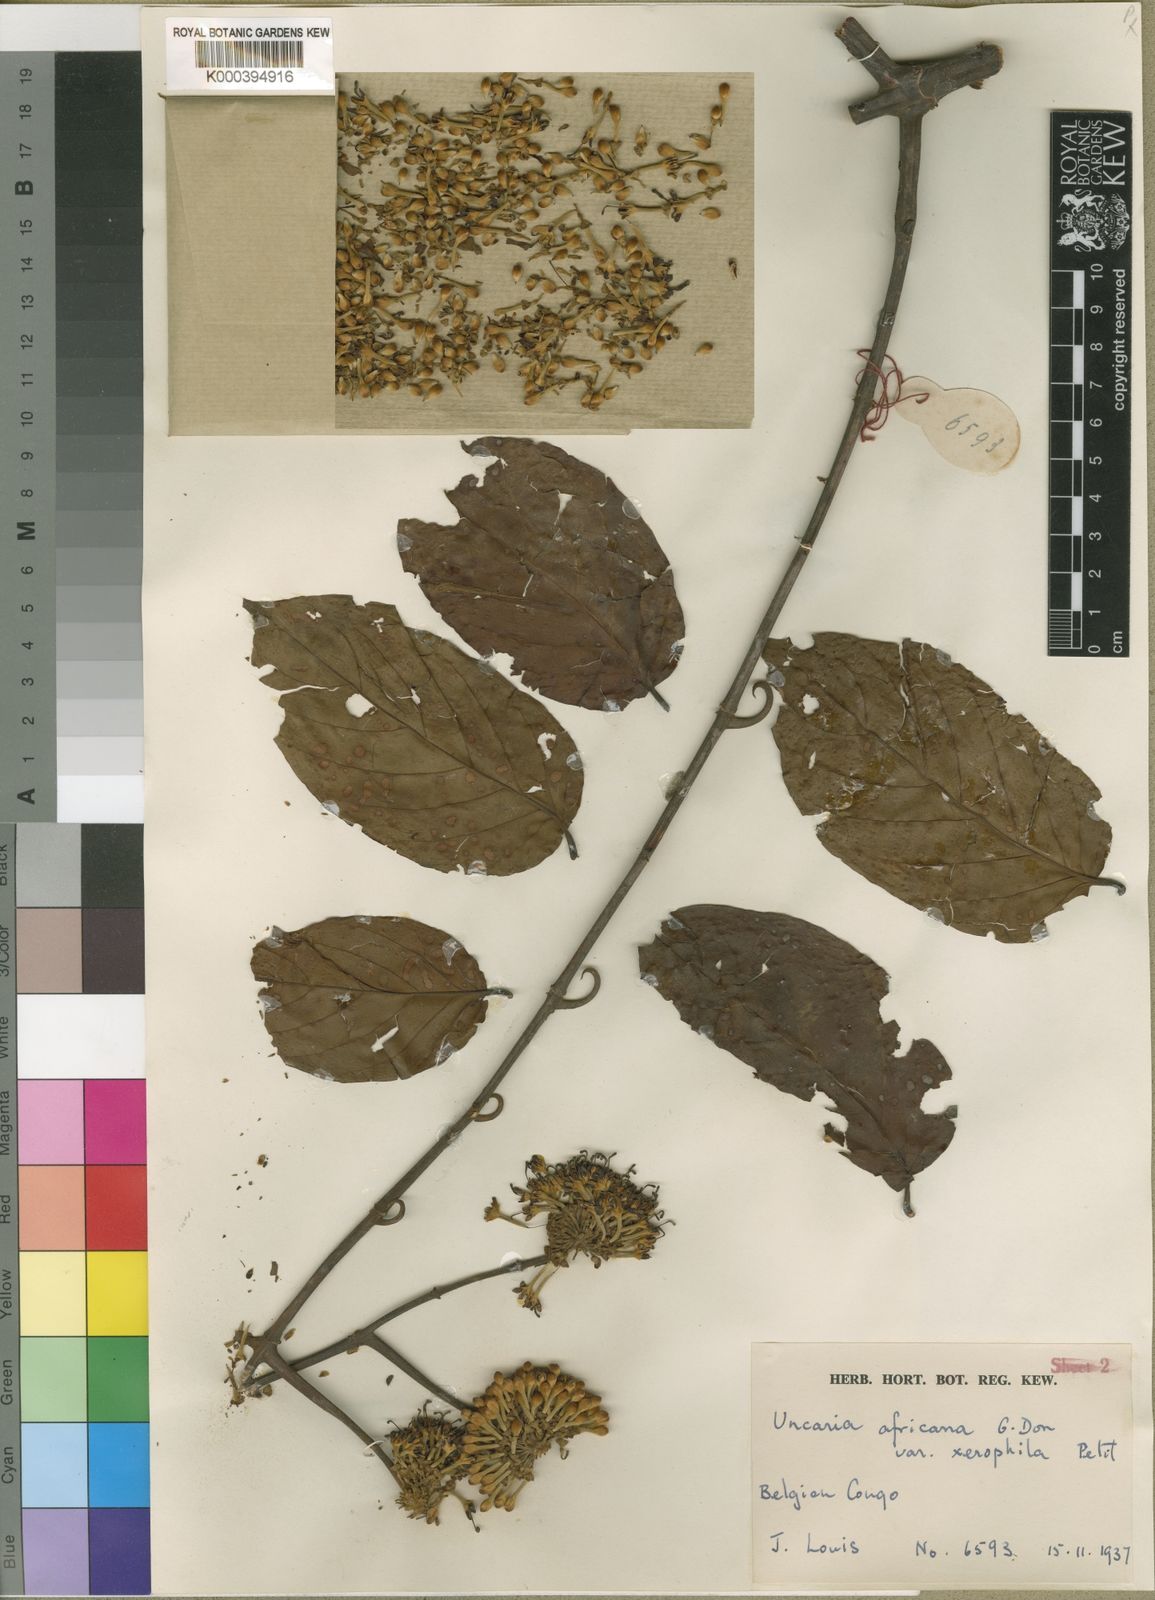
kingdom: Plantae
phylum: Tracheophyta
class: Magnoliopsida
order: Gentianales
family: Rubiaceae
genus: Uncaria
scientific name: Uncaria africana
